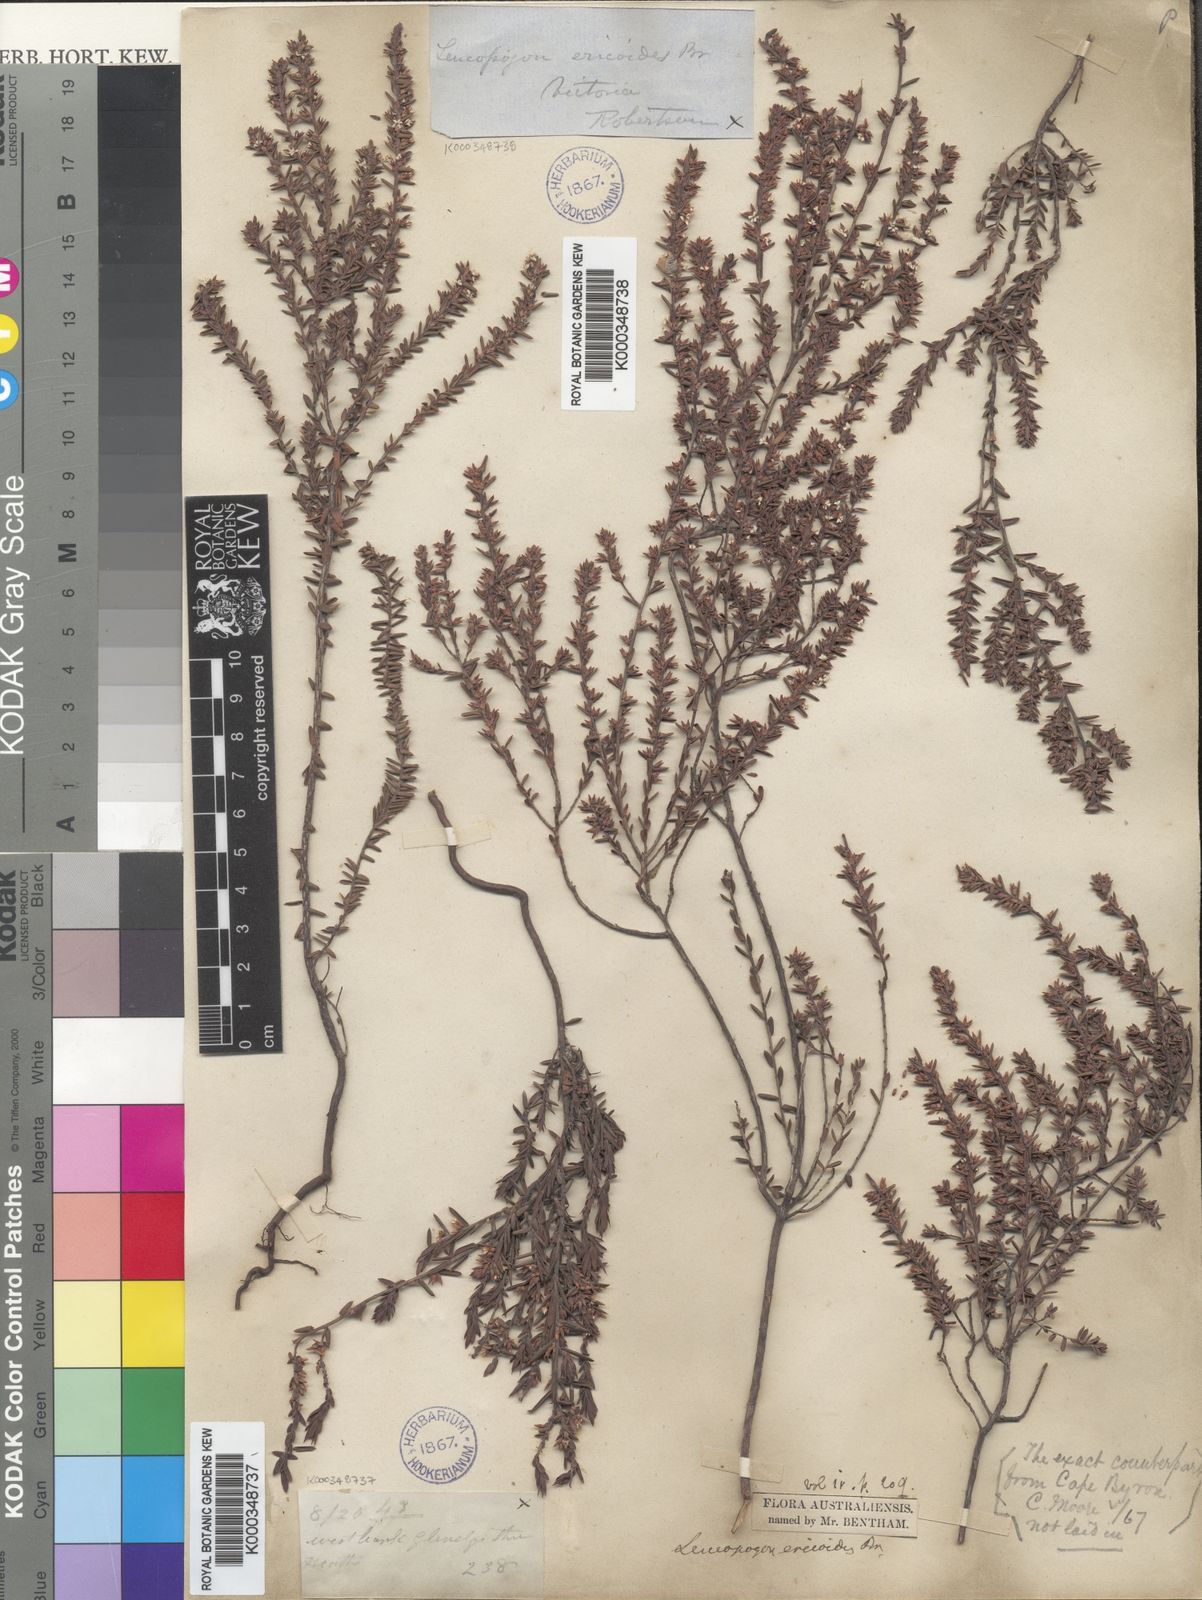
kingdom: Plantae
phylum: Tracheophyta
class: Magnoliopsida
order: Ericales
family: Ericaceae
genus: Styphelia
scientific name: Styphelia ericoides
